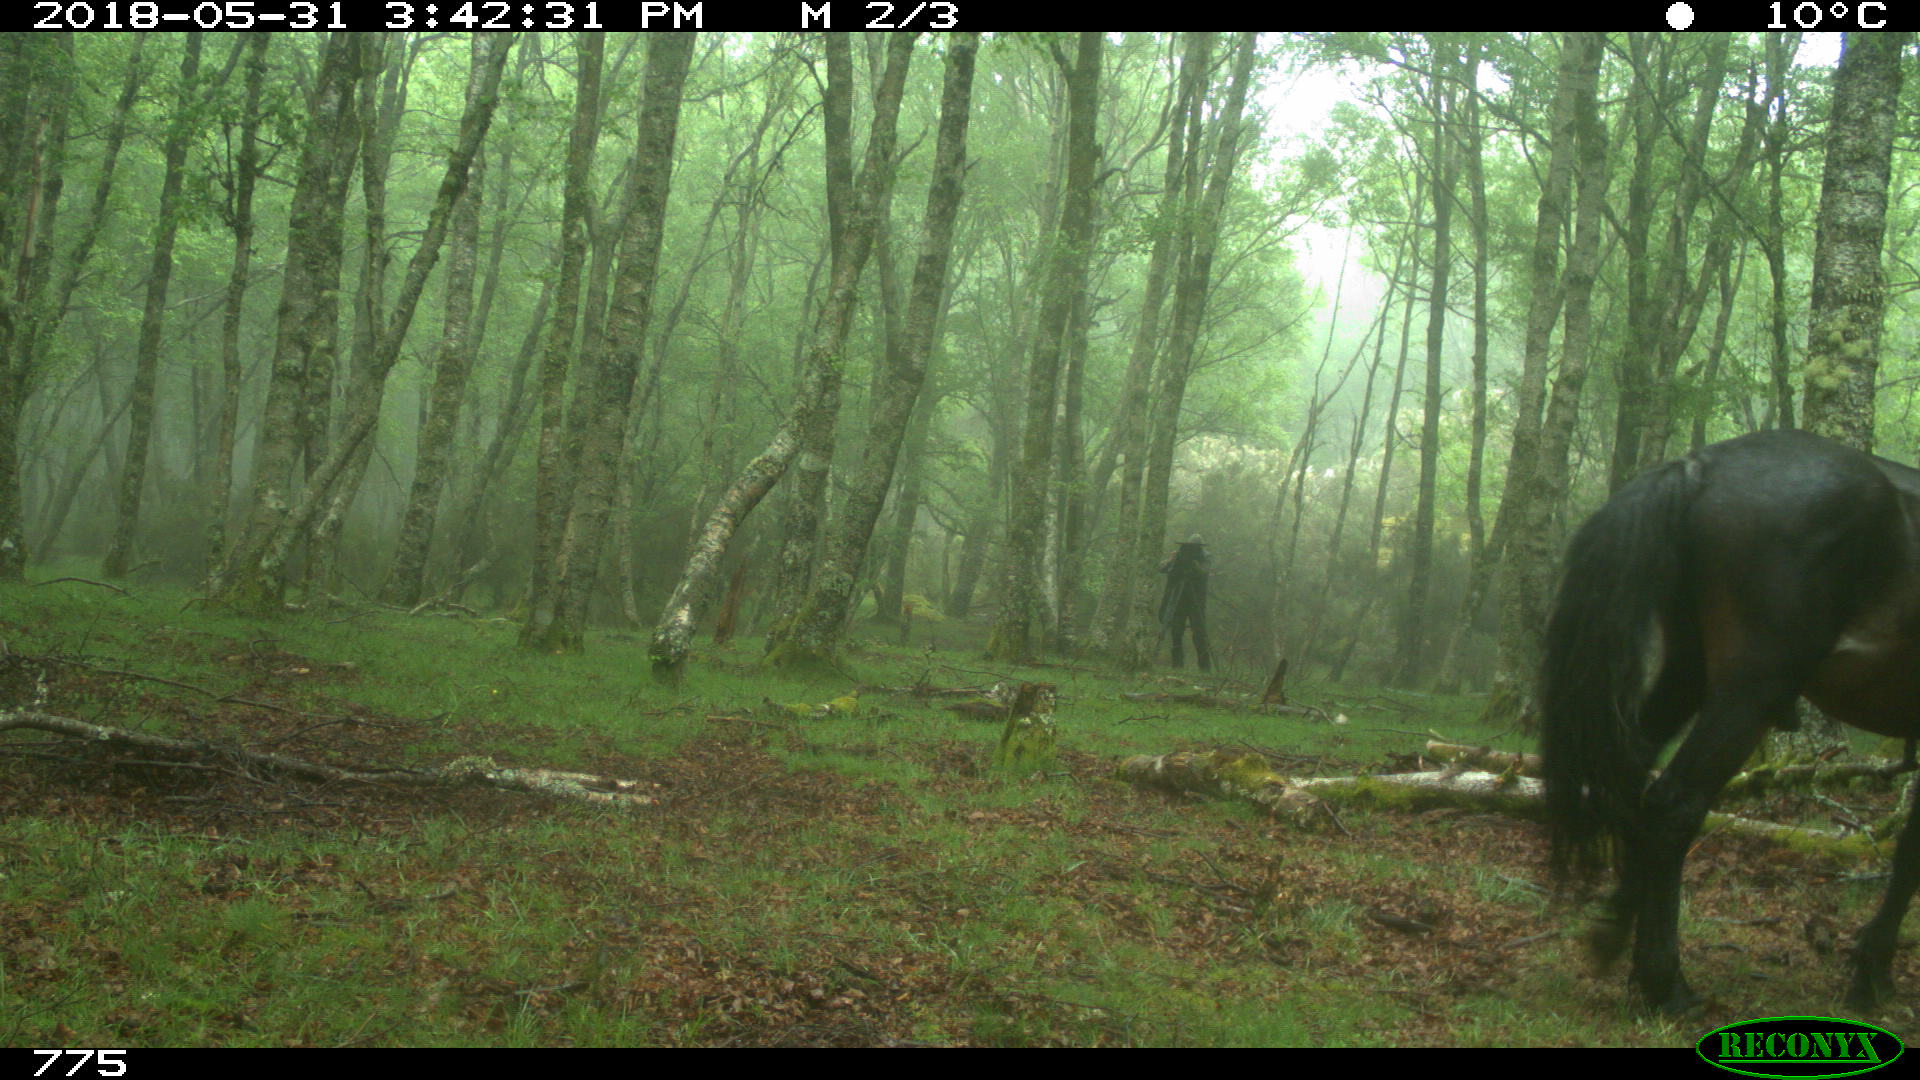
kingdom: Animalia
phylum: Chordata
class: Mammalia
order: Perissodactyla
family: Equidae
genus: Equus
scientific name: Equus caballus
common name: Horse
